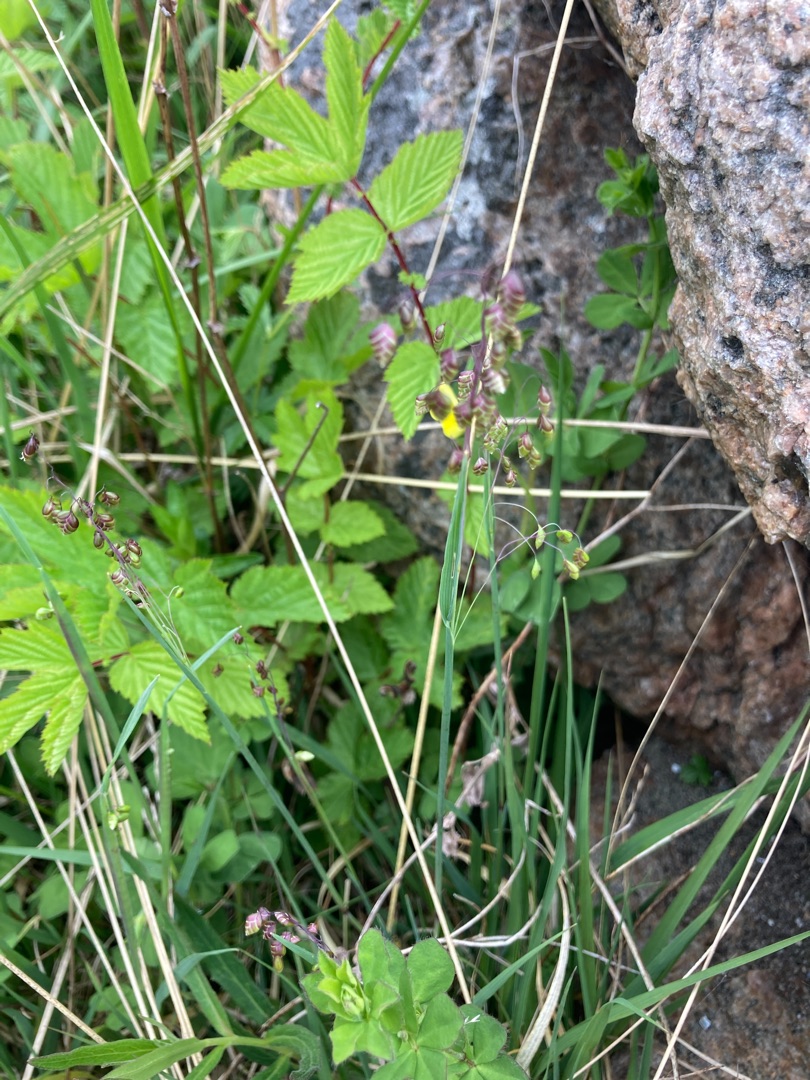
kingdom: Plantae
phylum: Tracheophyta
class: Liliopsida
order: Poales
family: Poaceae
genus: Briza
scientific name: Briza media
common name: Hjertegræs
